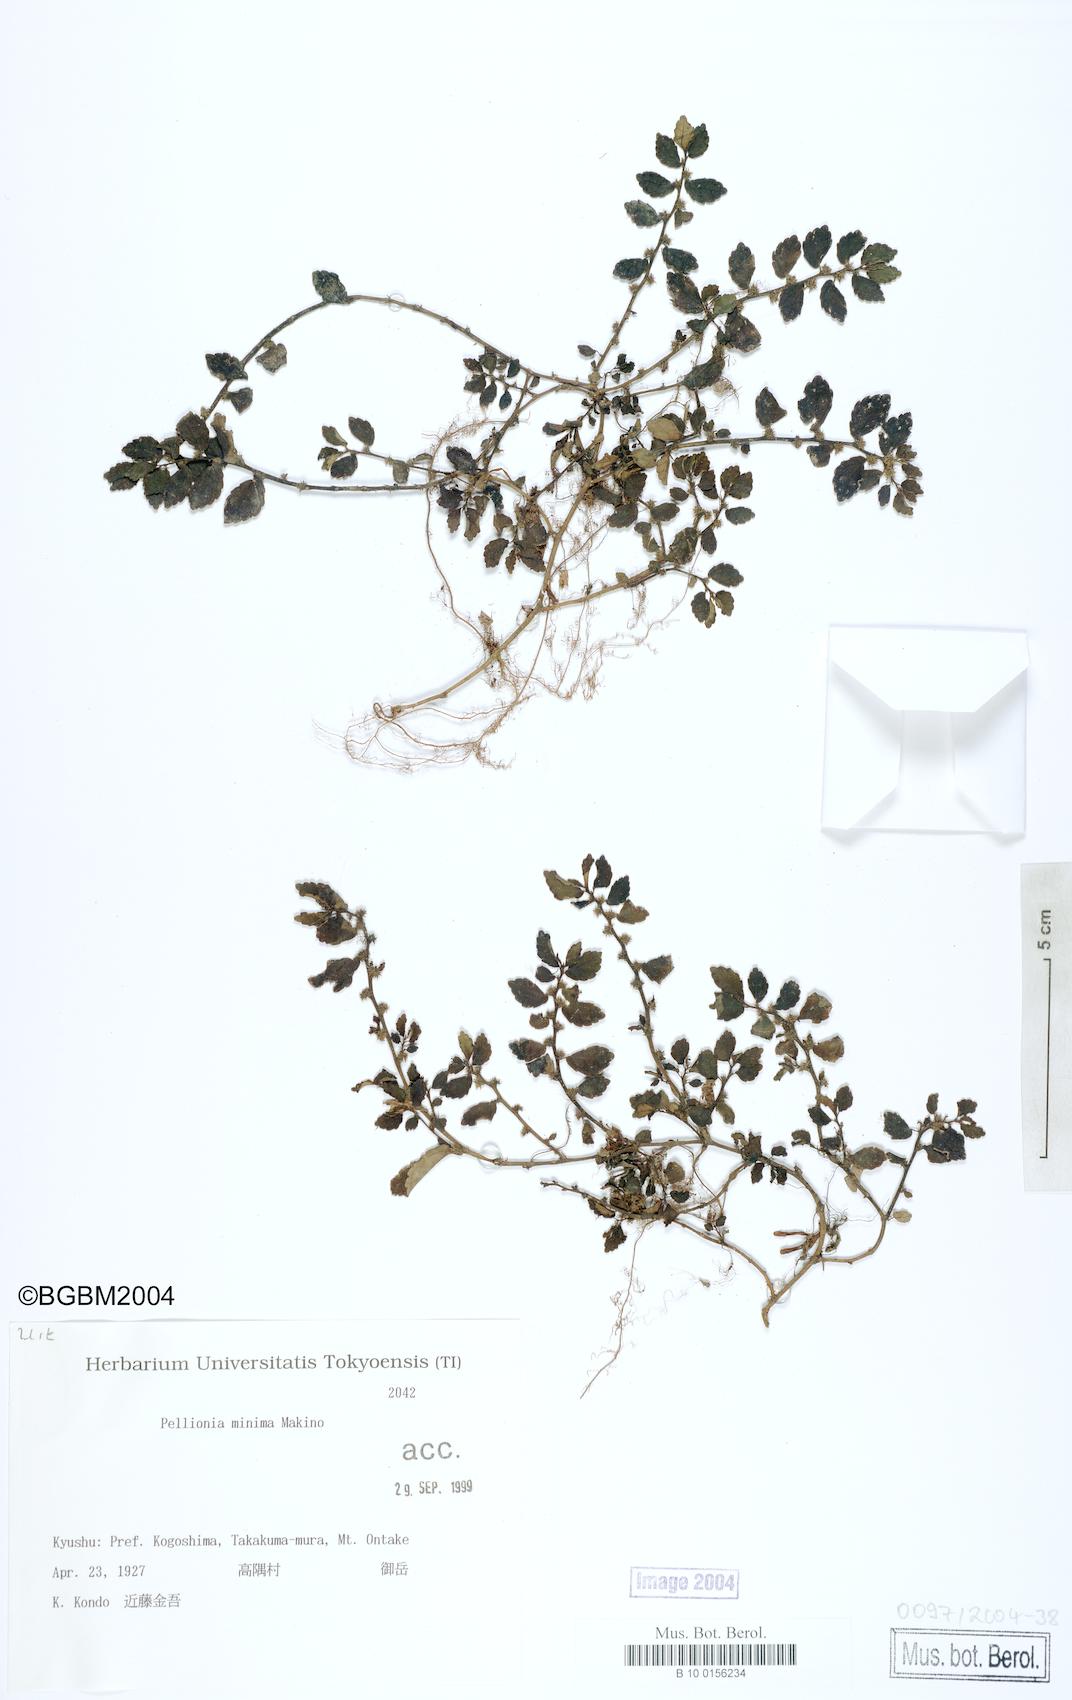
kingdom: Plantae
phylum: Tracheophyta
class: Magnoliopsida
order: Rosales
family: Urticaceae
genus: Elatostema
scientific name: Elatostema brevifolium
